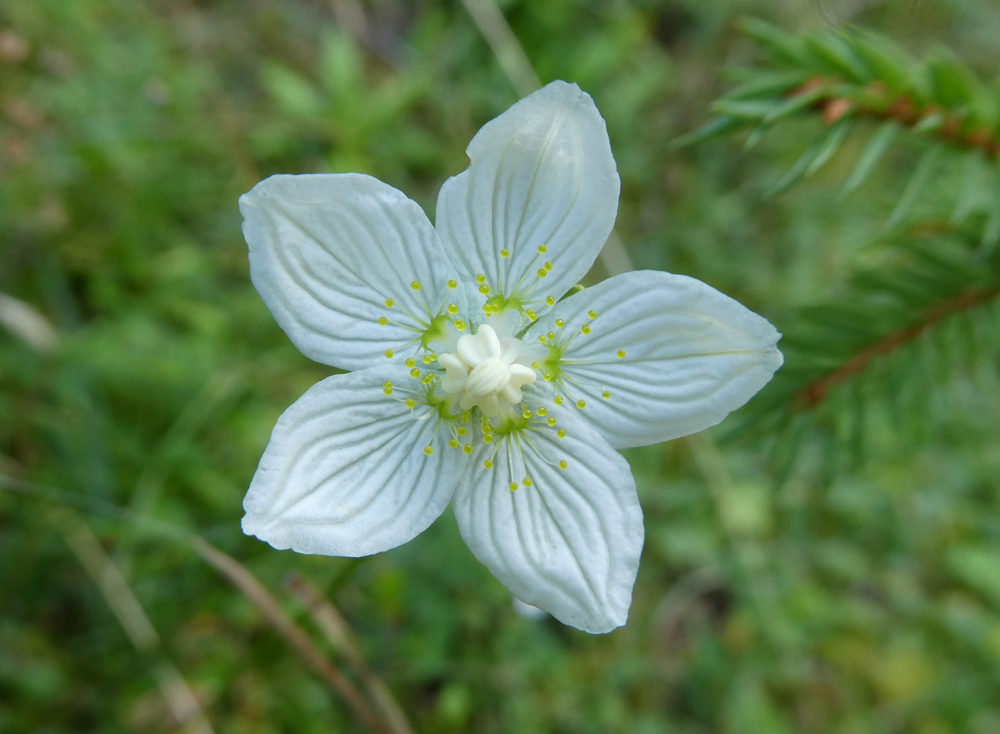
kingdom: Plantae
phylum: Tracheophyta
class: Magnoliopsida
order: Celastrales
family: Parnassiaceae
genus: Parnassia
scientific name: Parnassia palustris
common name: Grass-of-parnassus
